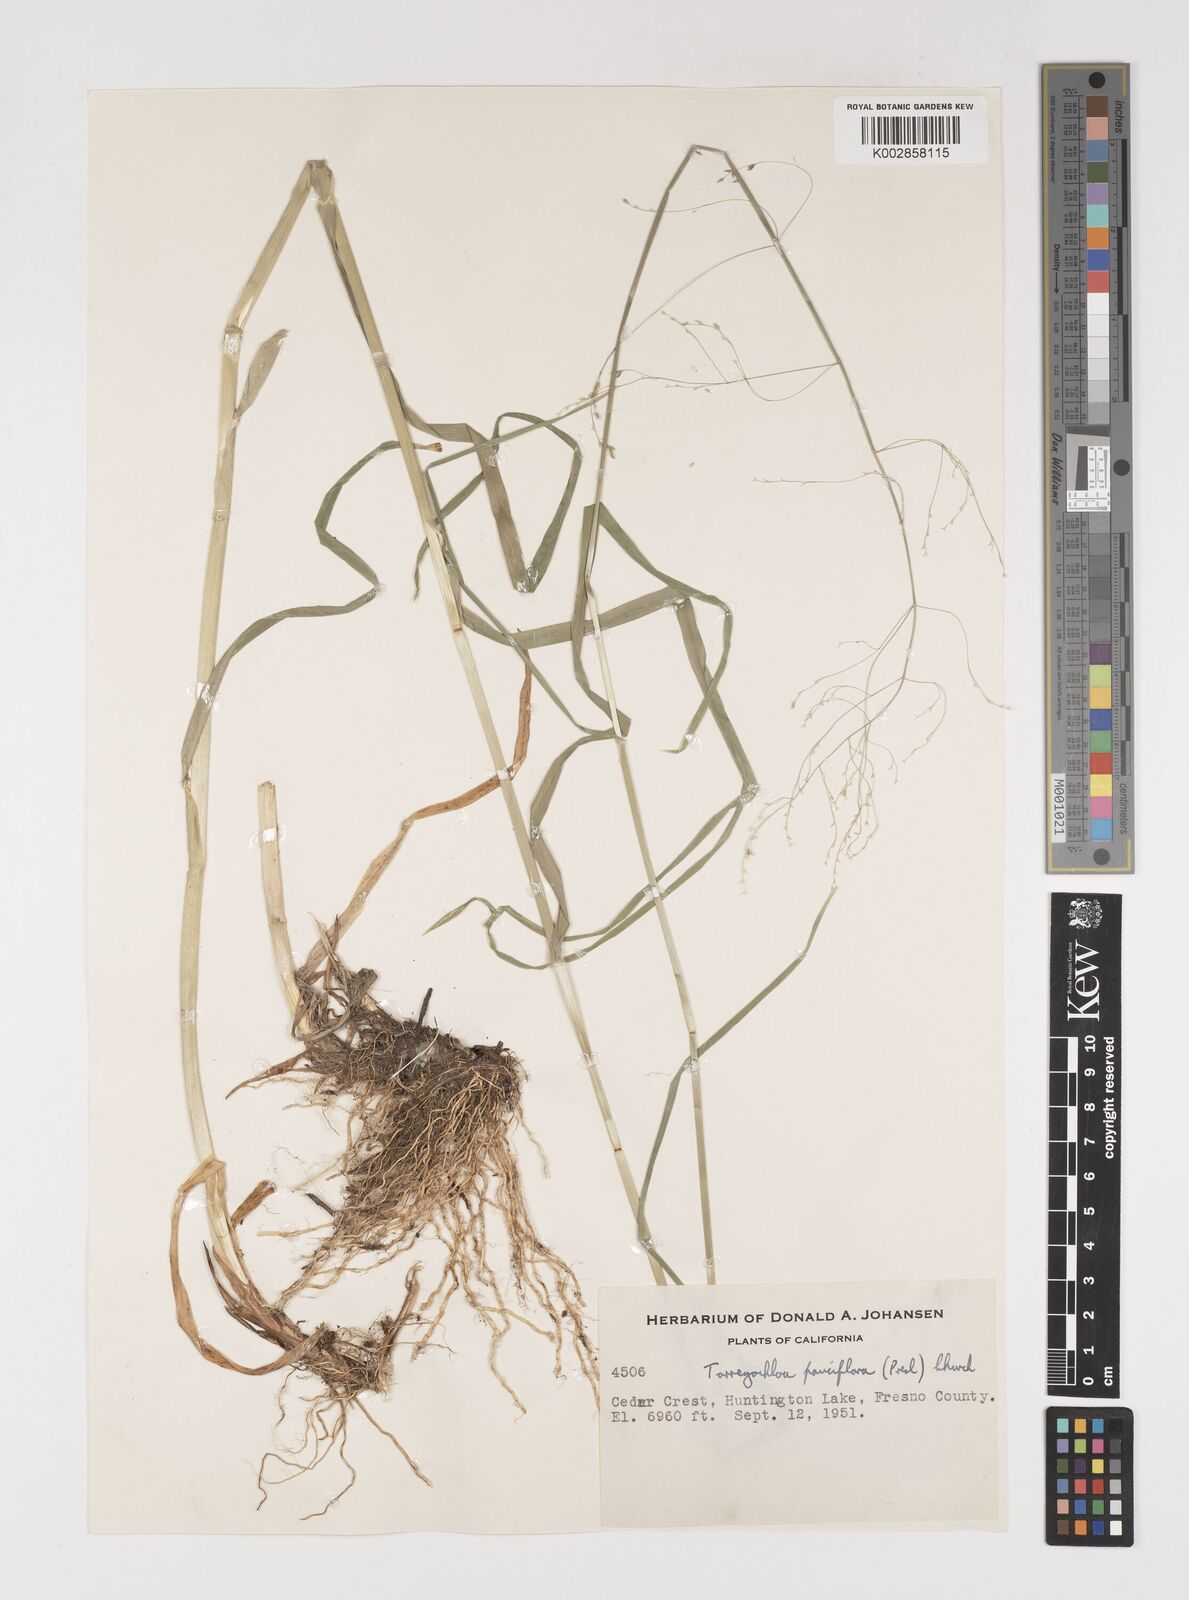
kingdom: Plantae
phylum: Tracheophyta
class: Liliopsida
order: Poales
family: Poaceae
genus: Torreyochloa
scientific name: Torreyochloa pallida
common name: Pale false mannagrass
